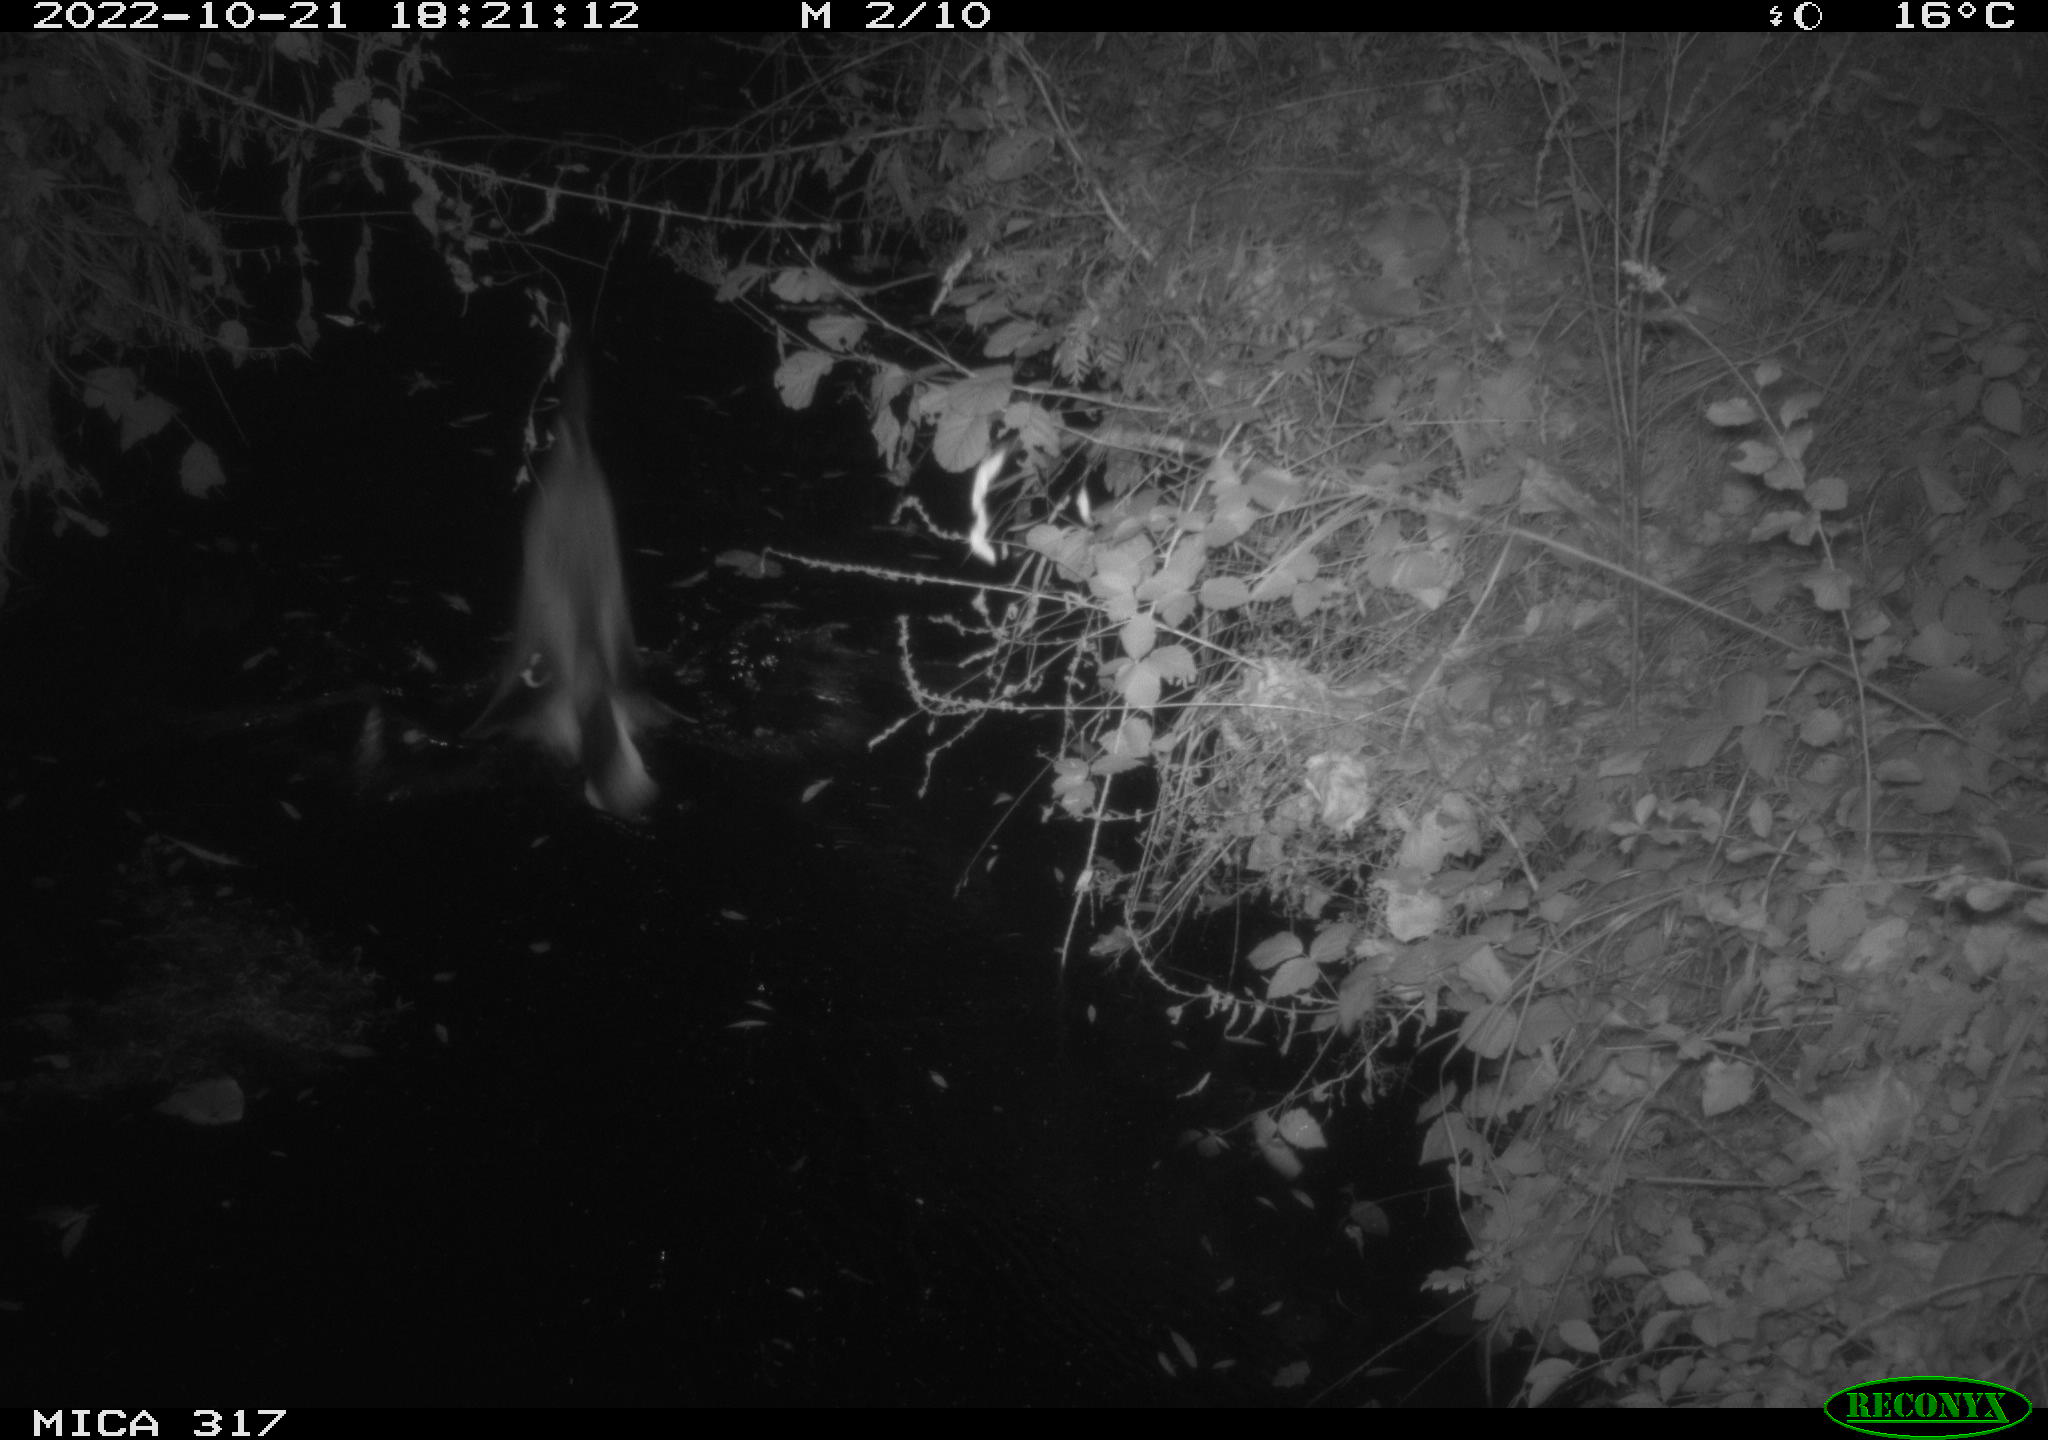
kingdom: Animalia
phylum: Chordata
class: Aves
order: Anseriformes
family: Anatidae
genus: Anas
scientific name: Anas
